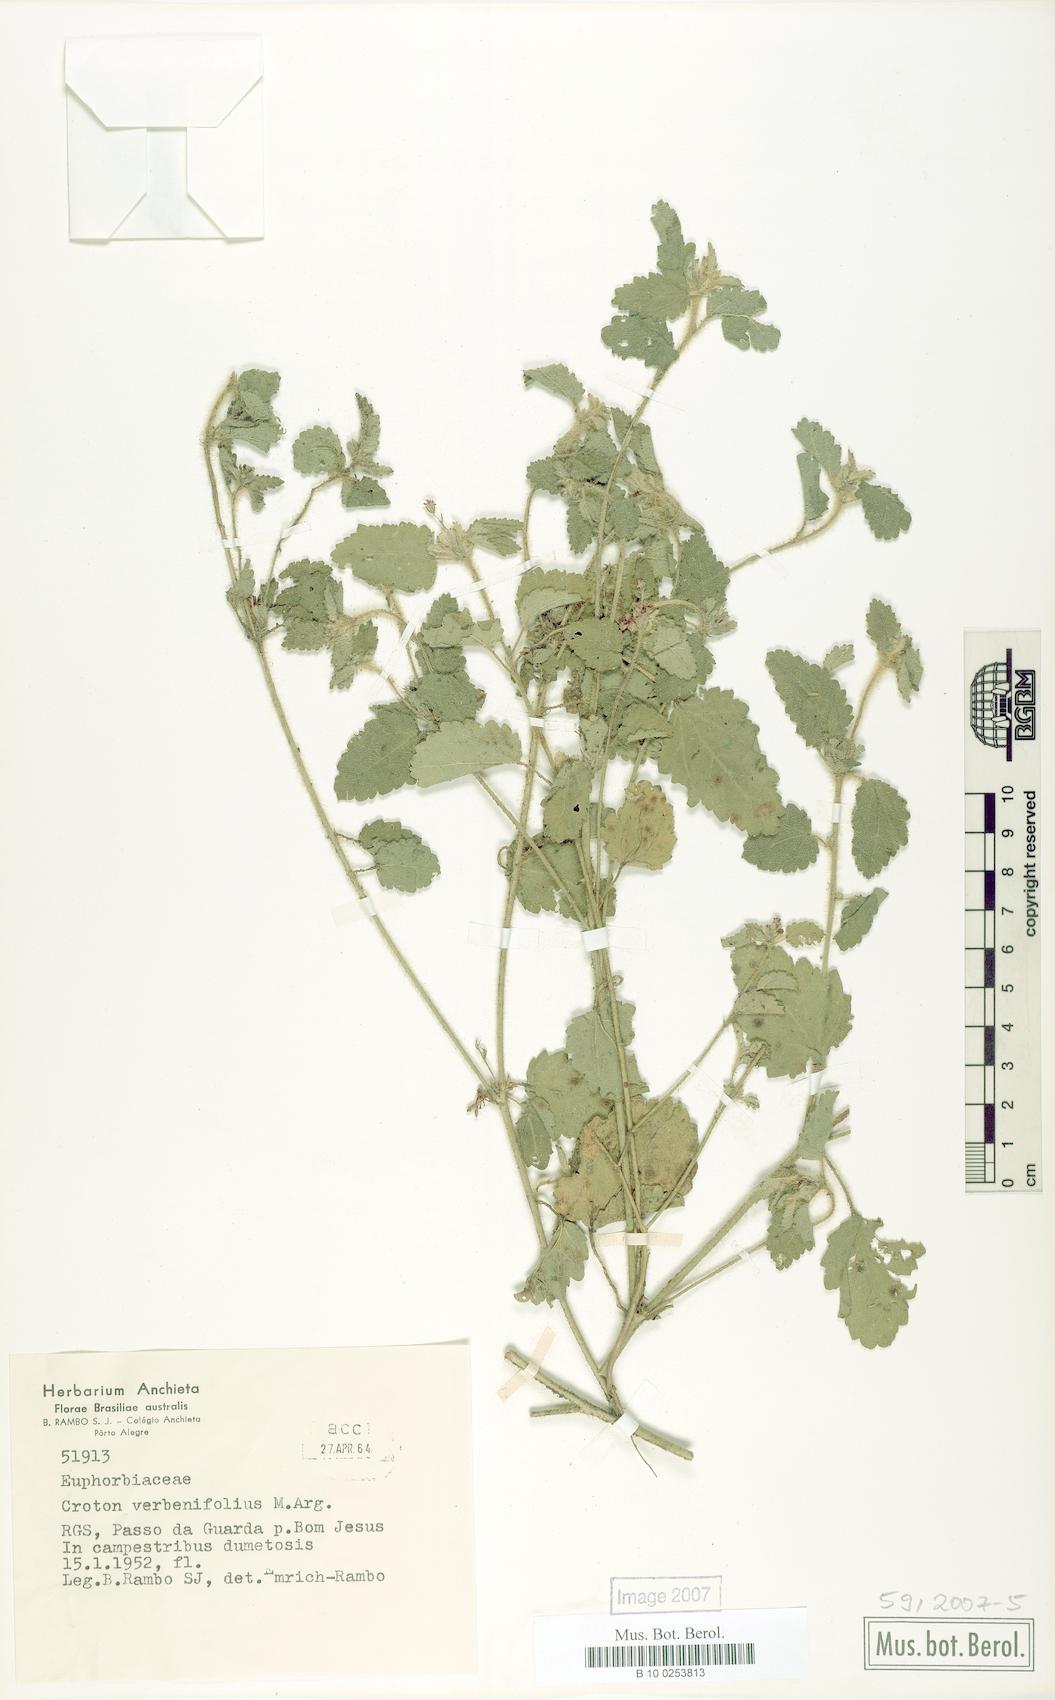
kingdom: Plantae
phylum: Tracheophyta
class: Magnoliopsida
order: Malpighiales
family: Euphorbiaceae
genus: Croton
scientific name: Croton verbenifolius
